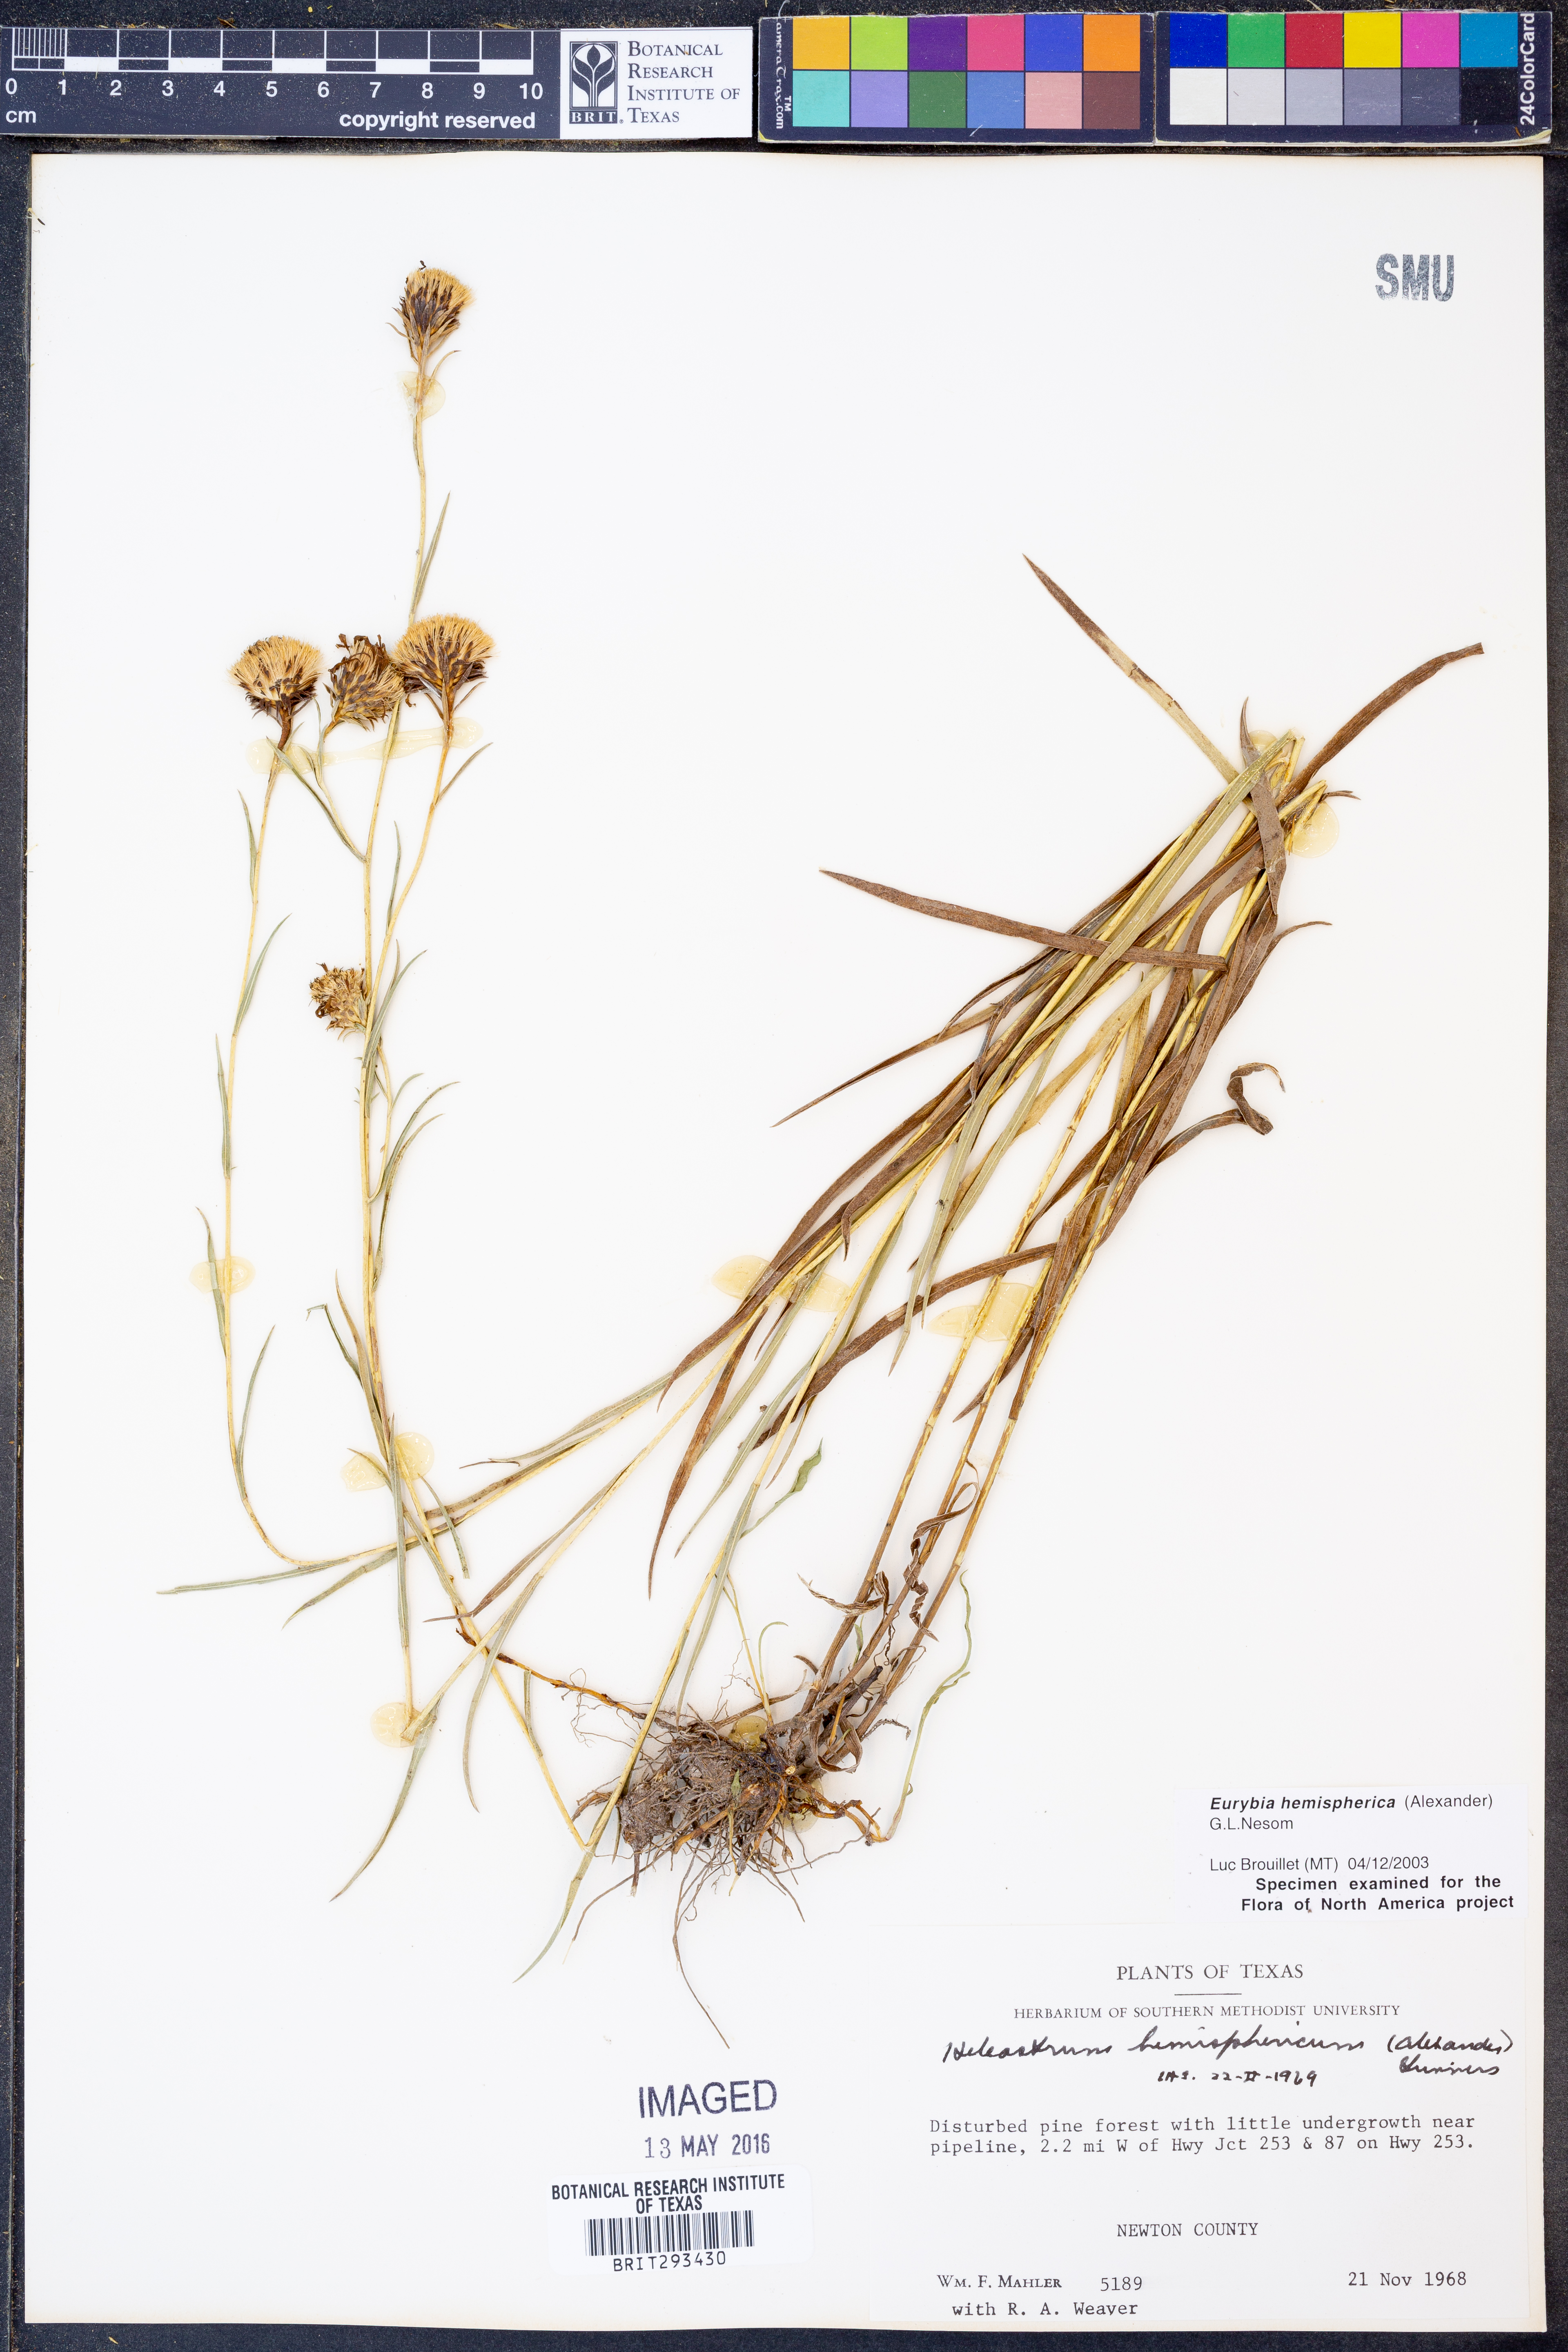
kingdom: Plantae
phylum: Tracheophyta
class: Magnoliopsida
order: Asterales
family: Asteraceae
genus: Eurybia
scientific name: Eurybia hemispherica
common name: Showy aster
